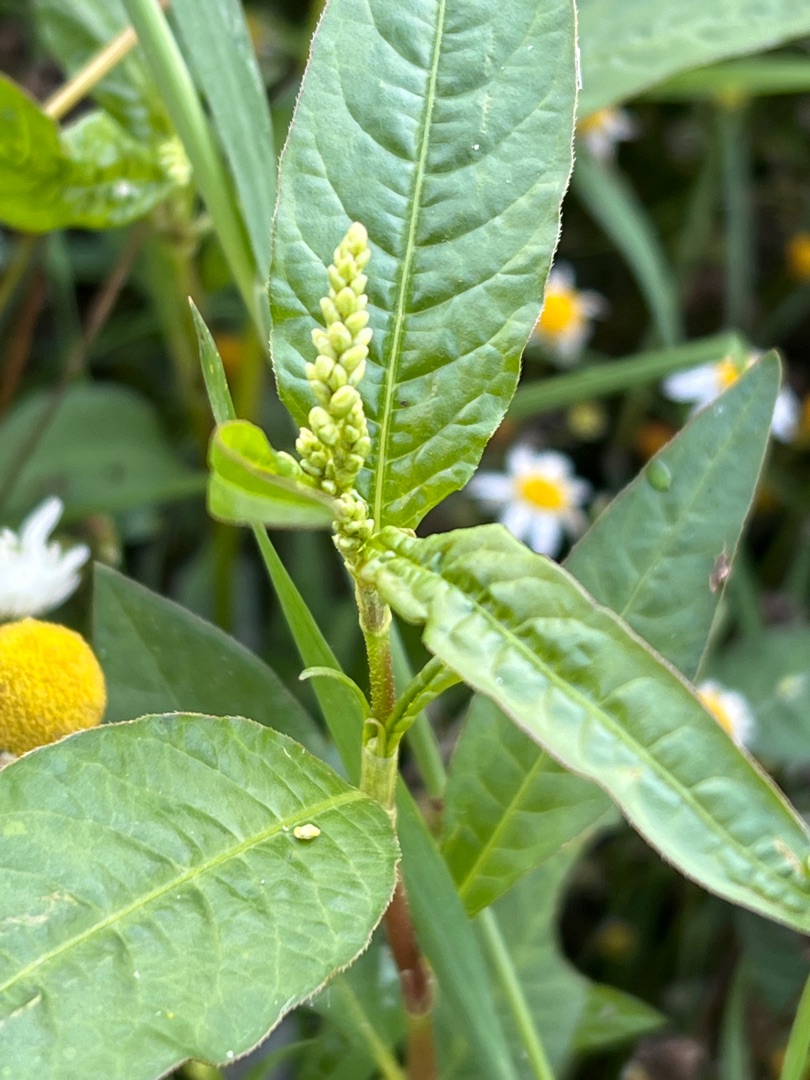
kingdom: Plantae
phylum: Tracheophyta
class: Magnoliopsida
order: Caryophyllales
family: Polygonaceae
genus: Persicaria
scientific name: Persicaria lapathifolia
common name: Bleg pileurt
